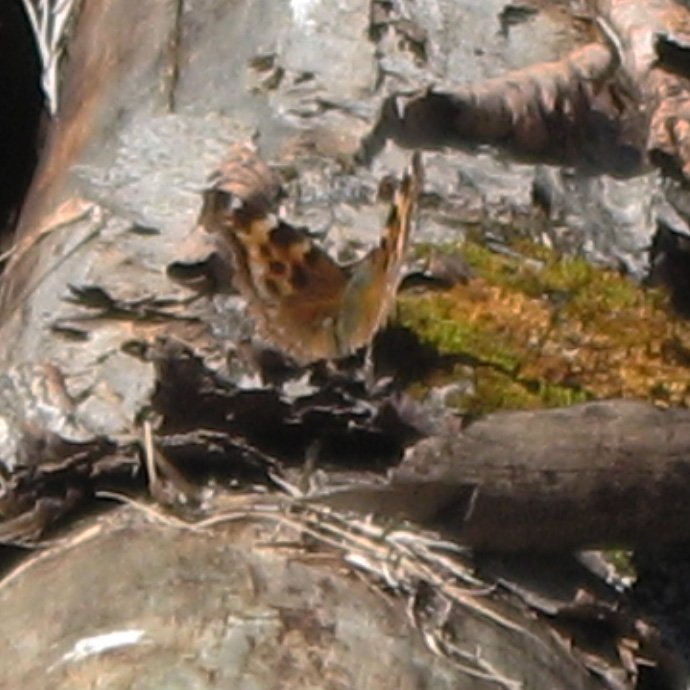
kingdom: Animalia
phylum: Arthropoda
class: Insecta
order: Lepidoptera
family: Nymphalidae
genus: Polygonia
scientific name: Polygonia vaualbum
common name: Compton Tortoiseshell
